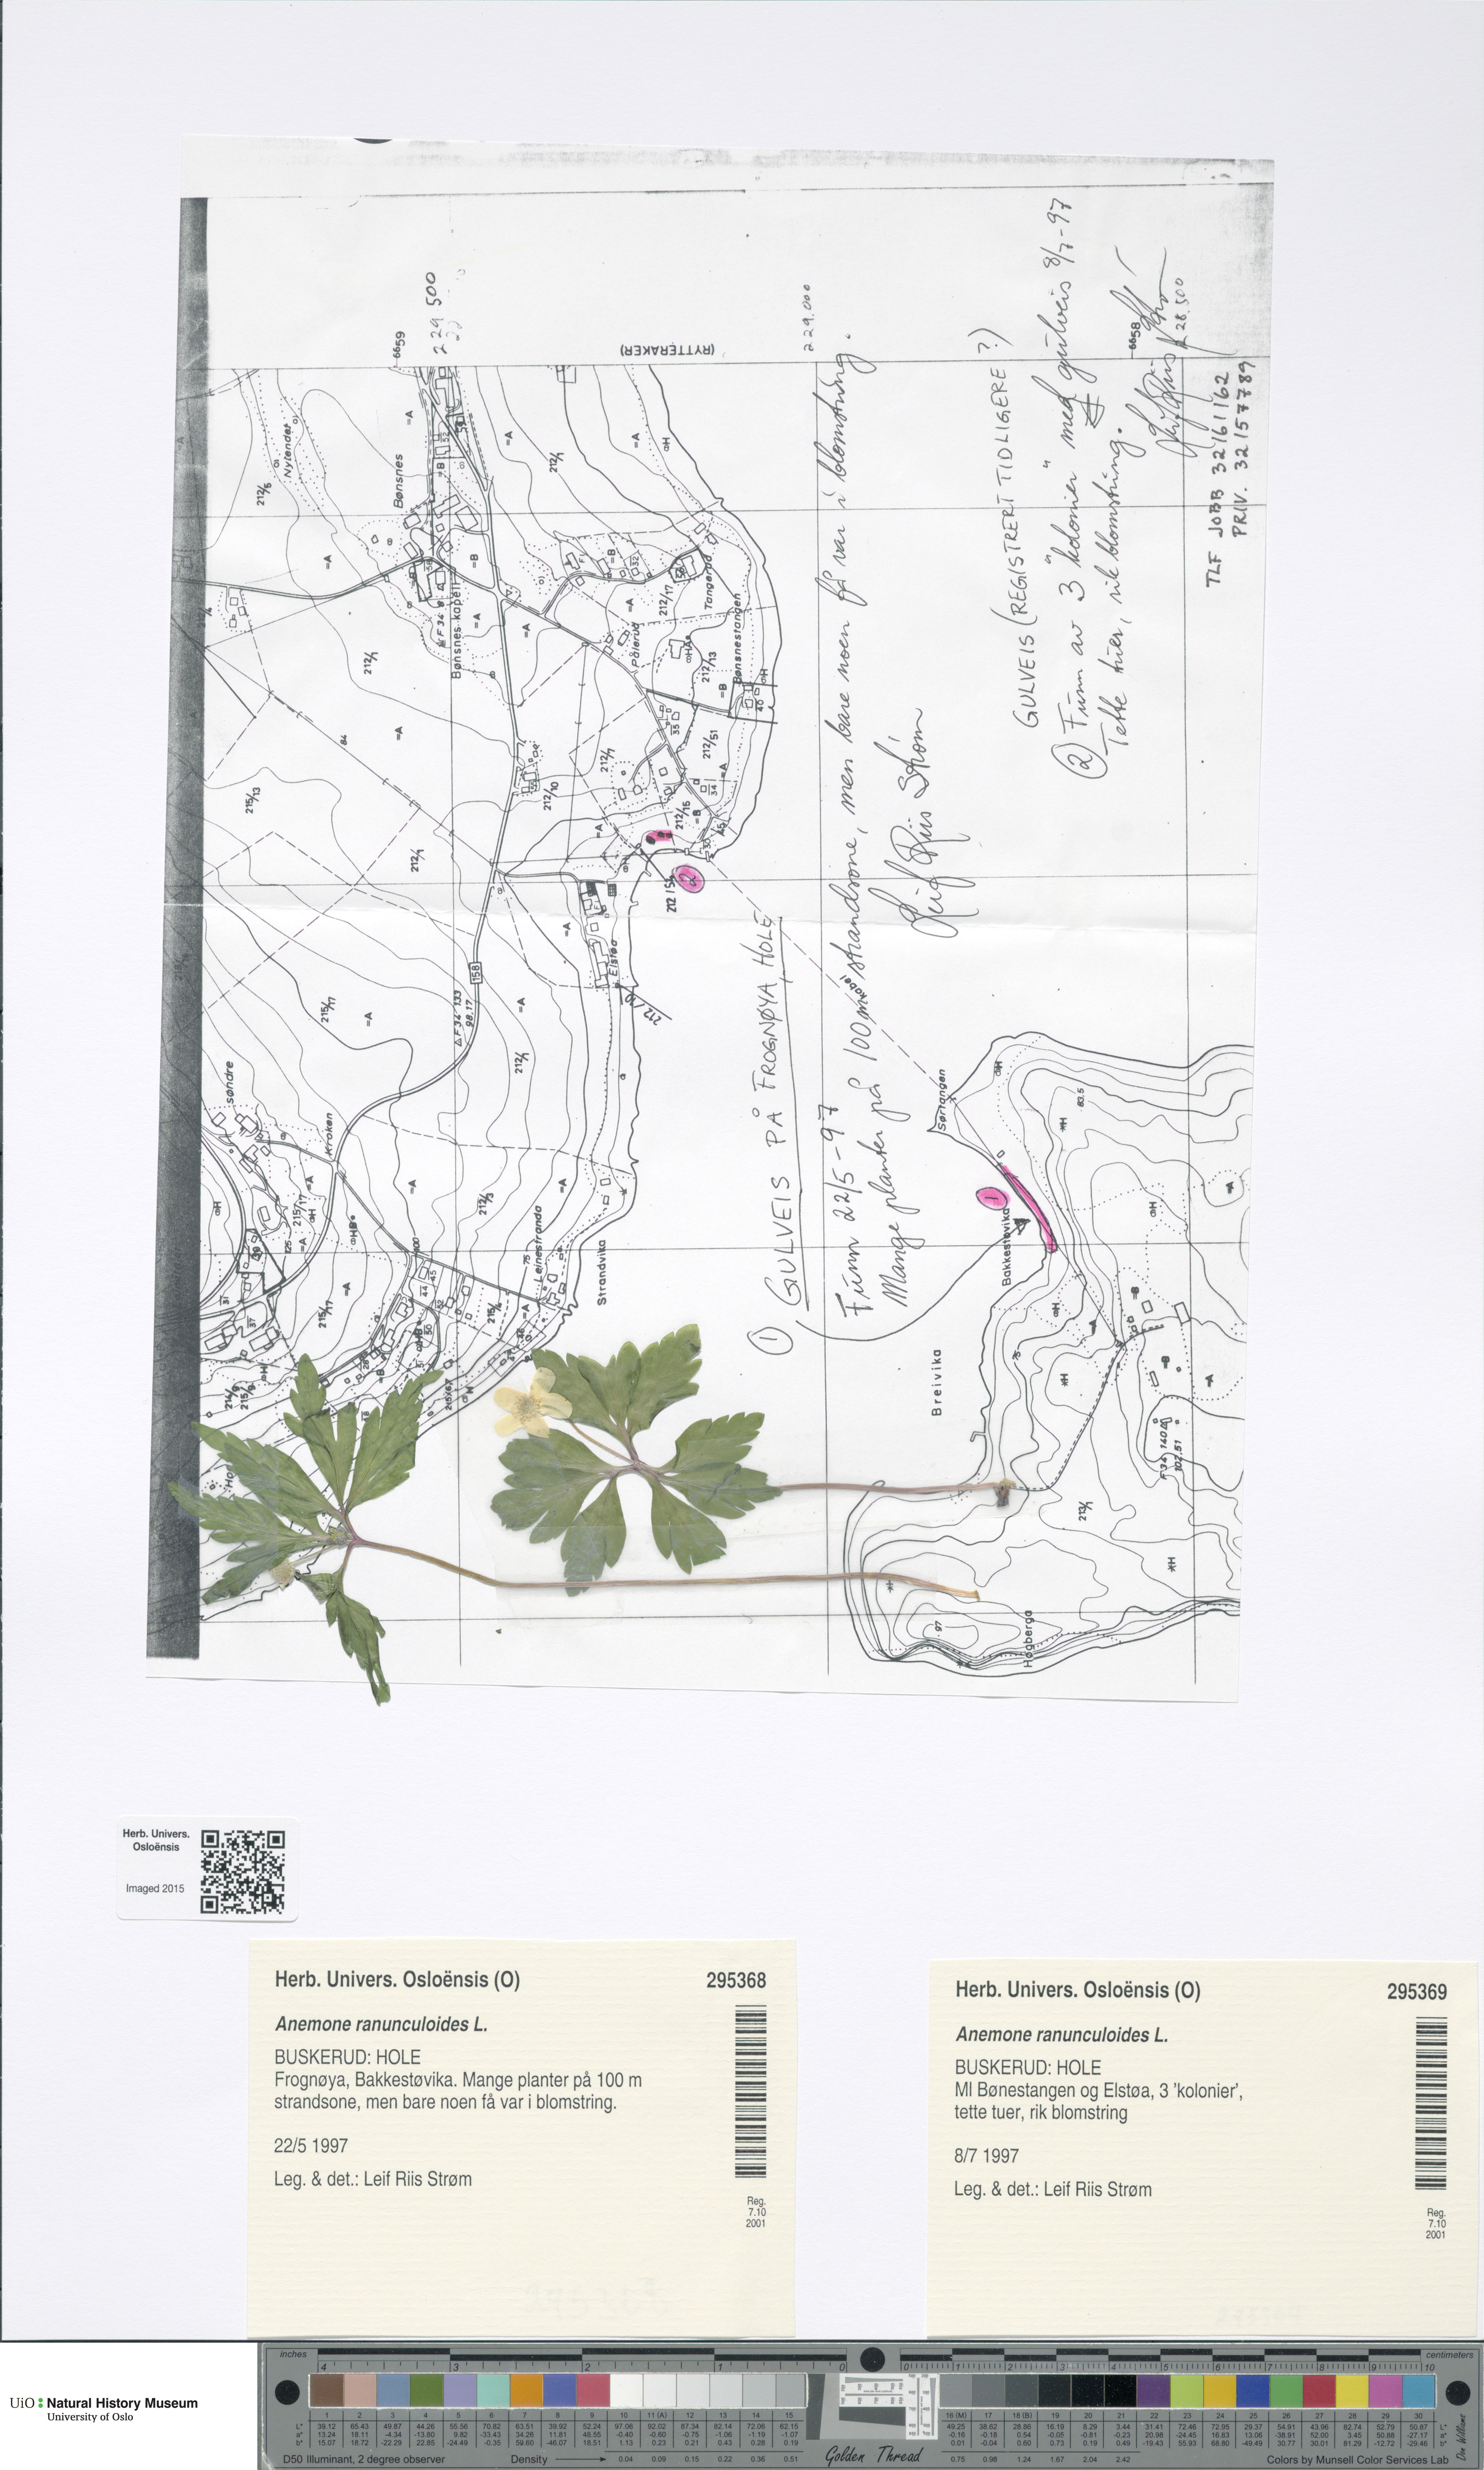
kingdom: Plantae
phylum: Tracheophyta
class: Magnoliopsida
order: Ranunculales
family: Ranunculaceae
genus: Anemone
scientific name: Anemone ranunculoides
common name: Yellow anemone
